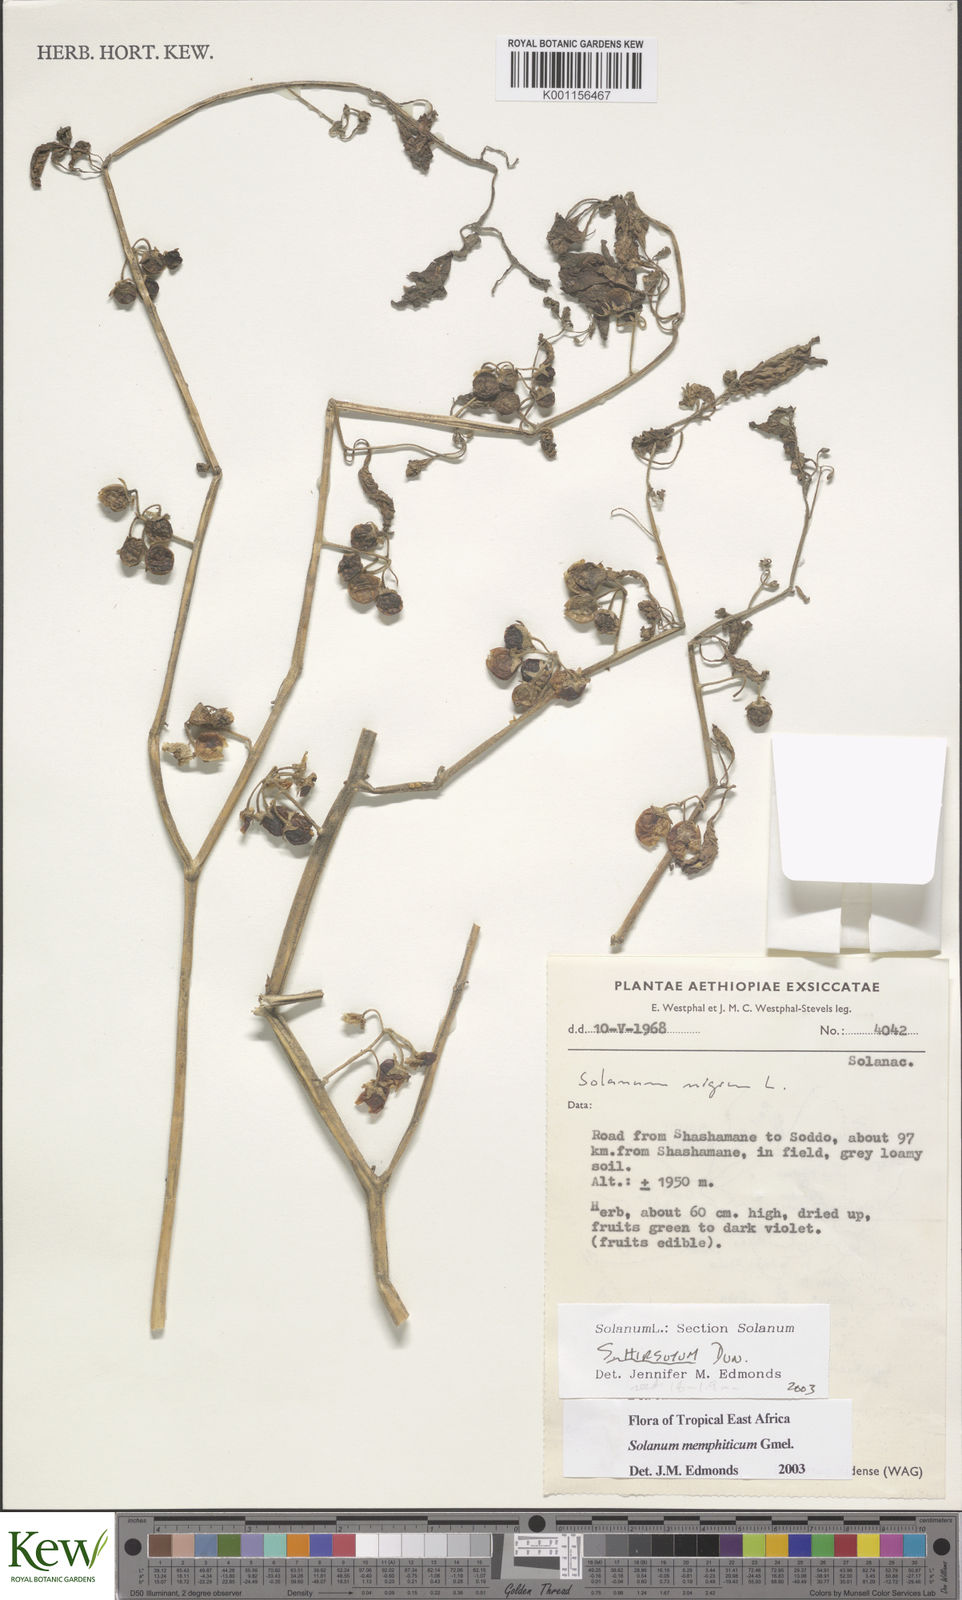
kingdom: Plantae
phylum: Tracheophyta
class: Magnoliopsida
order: Solanales
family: Solanaceae
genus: Solanum
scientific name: Solanum memphiticum
